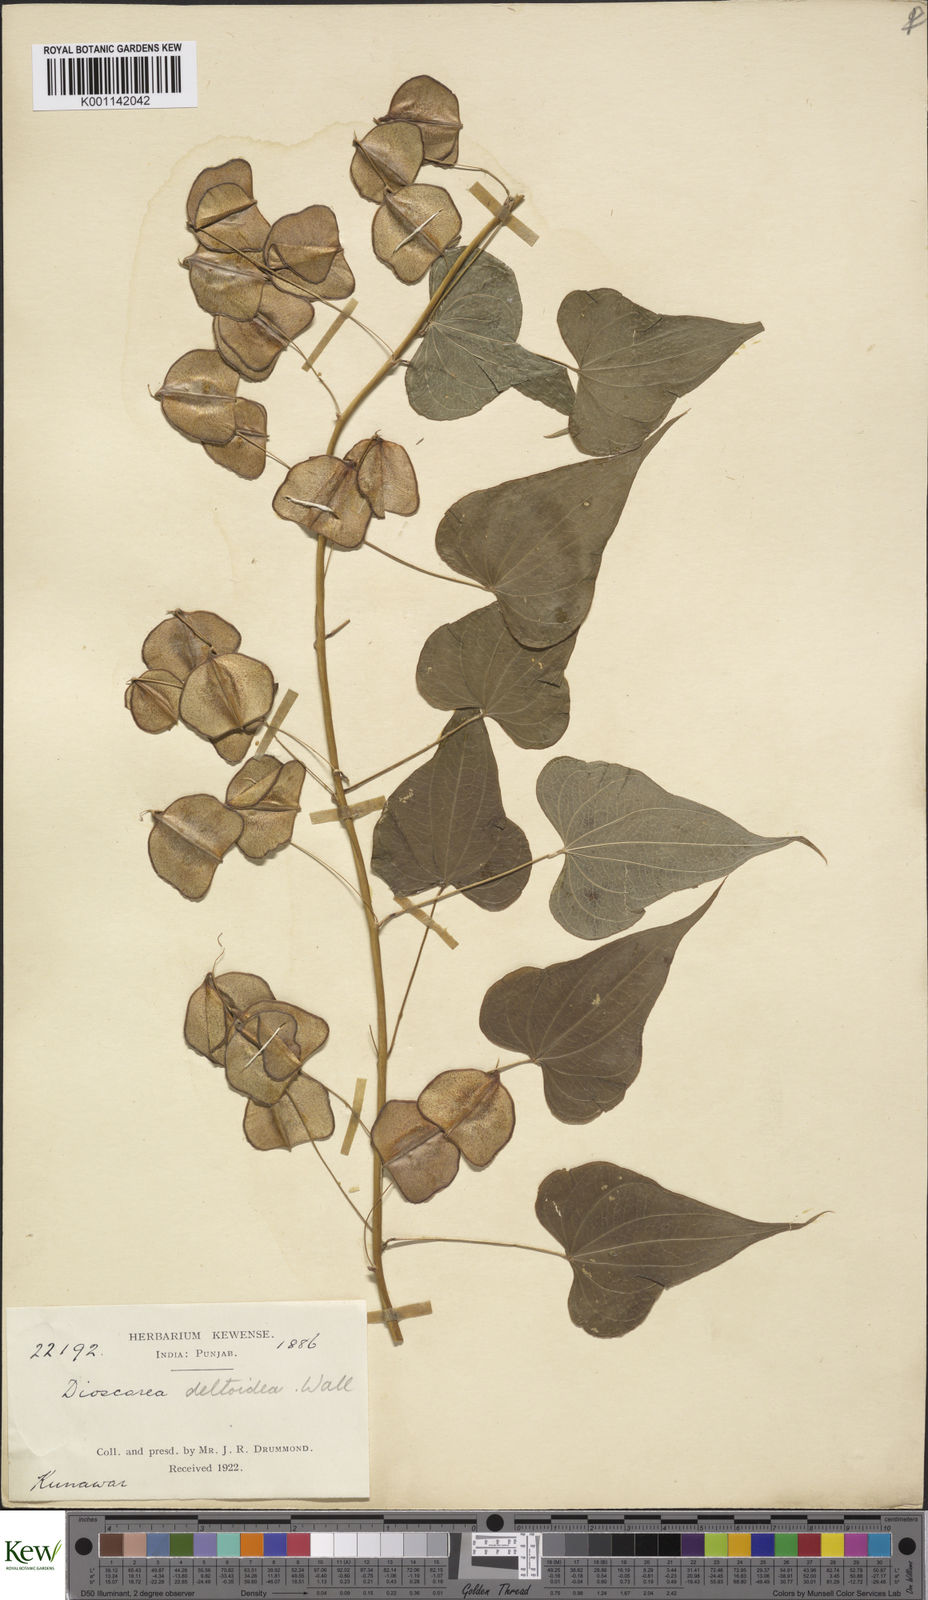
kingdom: Plantae
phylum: Tracheophyta
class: Liliopsida
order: Dioscoreales
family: Dioscoreaceae
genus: Dioscorea
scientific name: Dioscorea deltoidea
